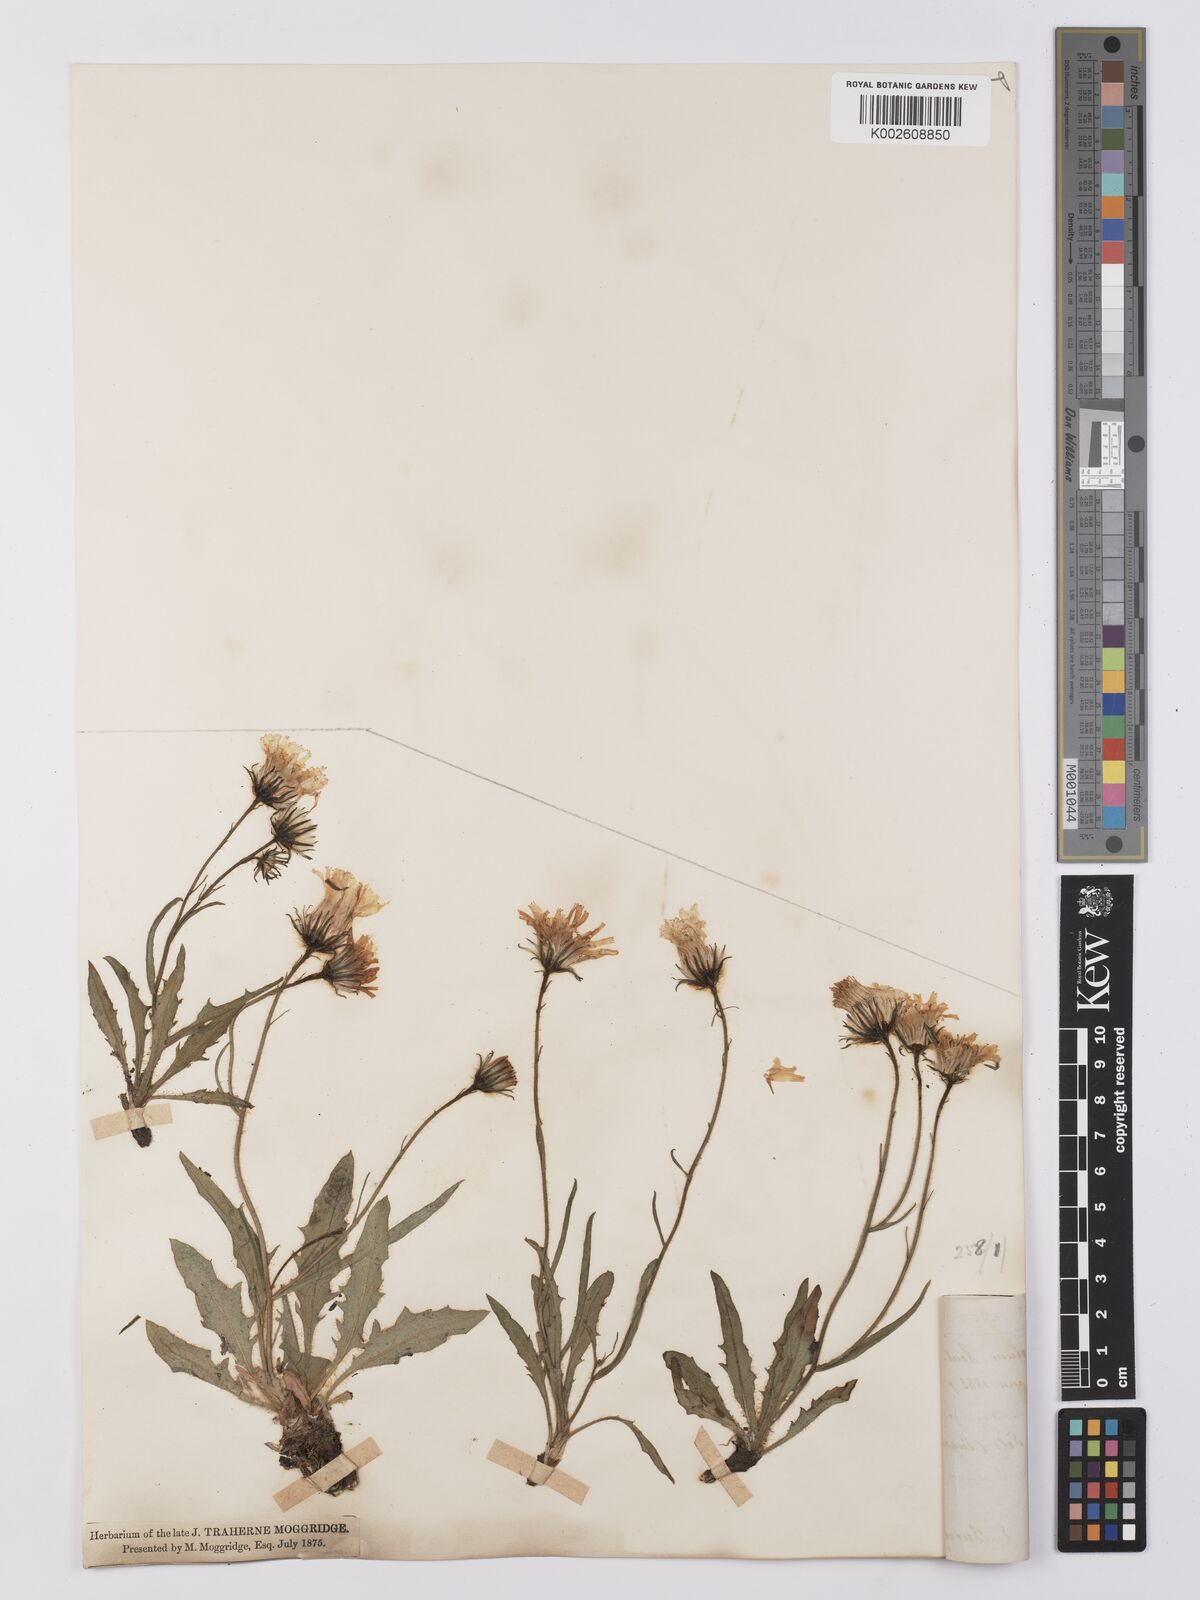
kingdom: Plantae
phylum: Tracheophyta
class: Magnoliopsida
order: Asterales
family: Asteraceae
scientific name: Asteraceae
